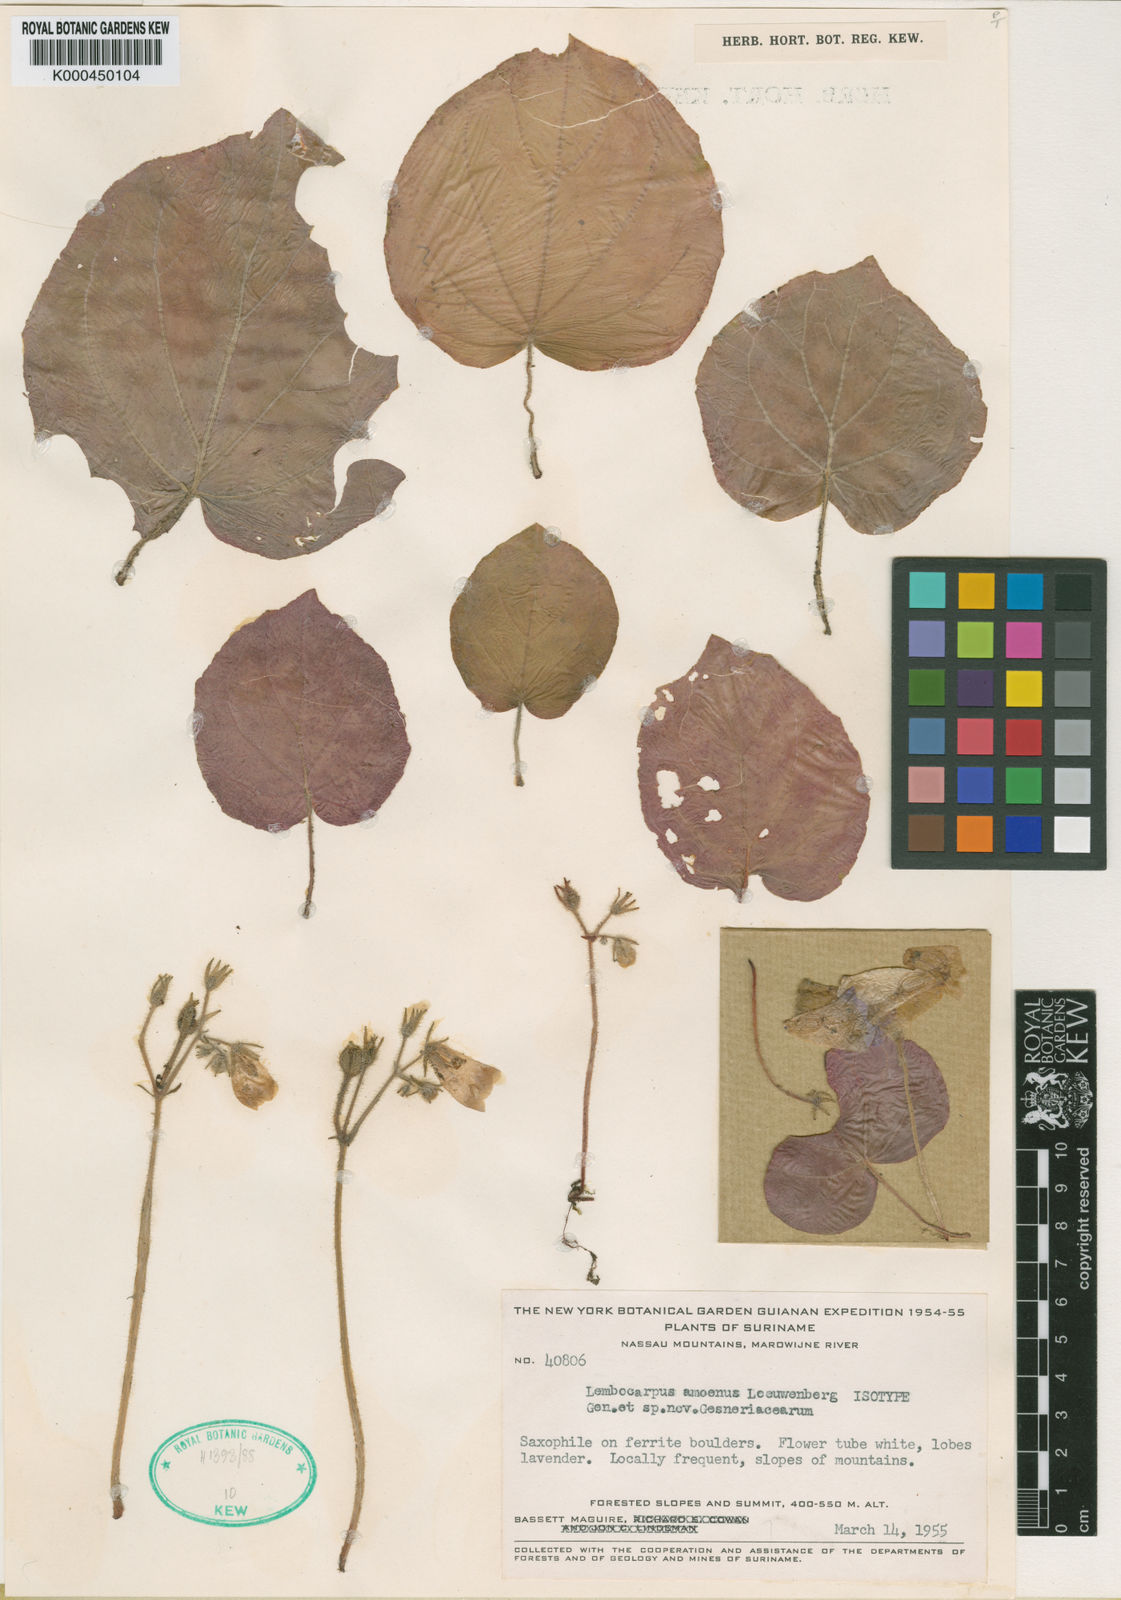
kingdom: Plantae
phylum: Tracheophyta
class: Magnoliopsida
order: Lamiales
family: Gesneriaceae
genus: Lembocarpus
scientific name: Lembocarpus amoenus
